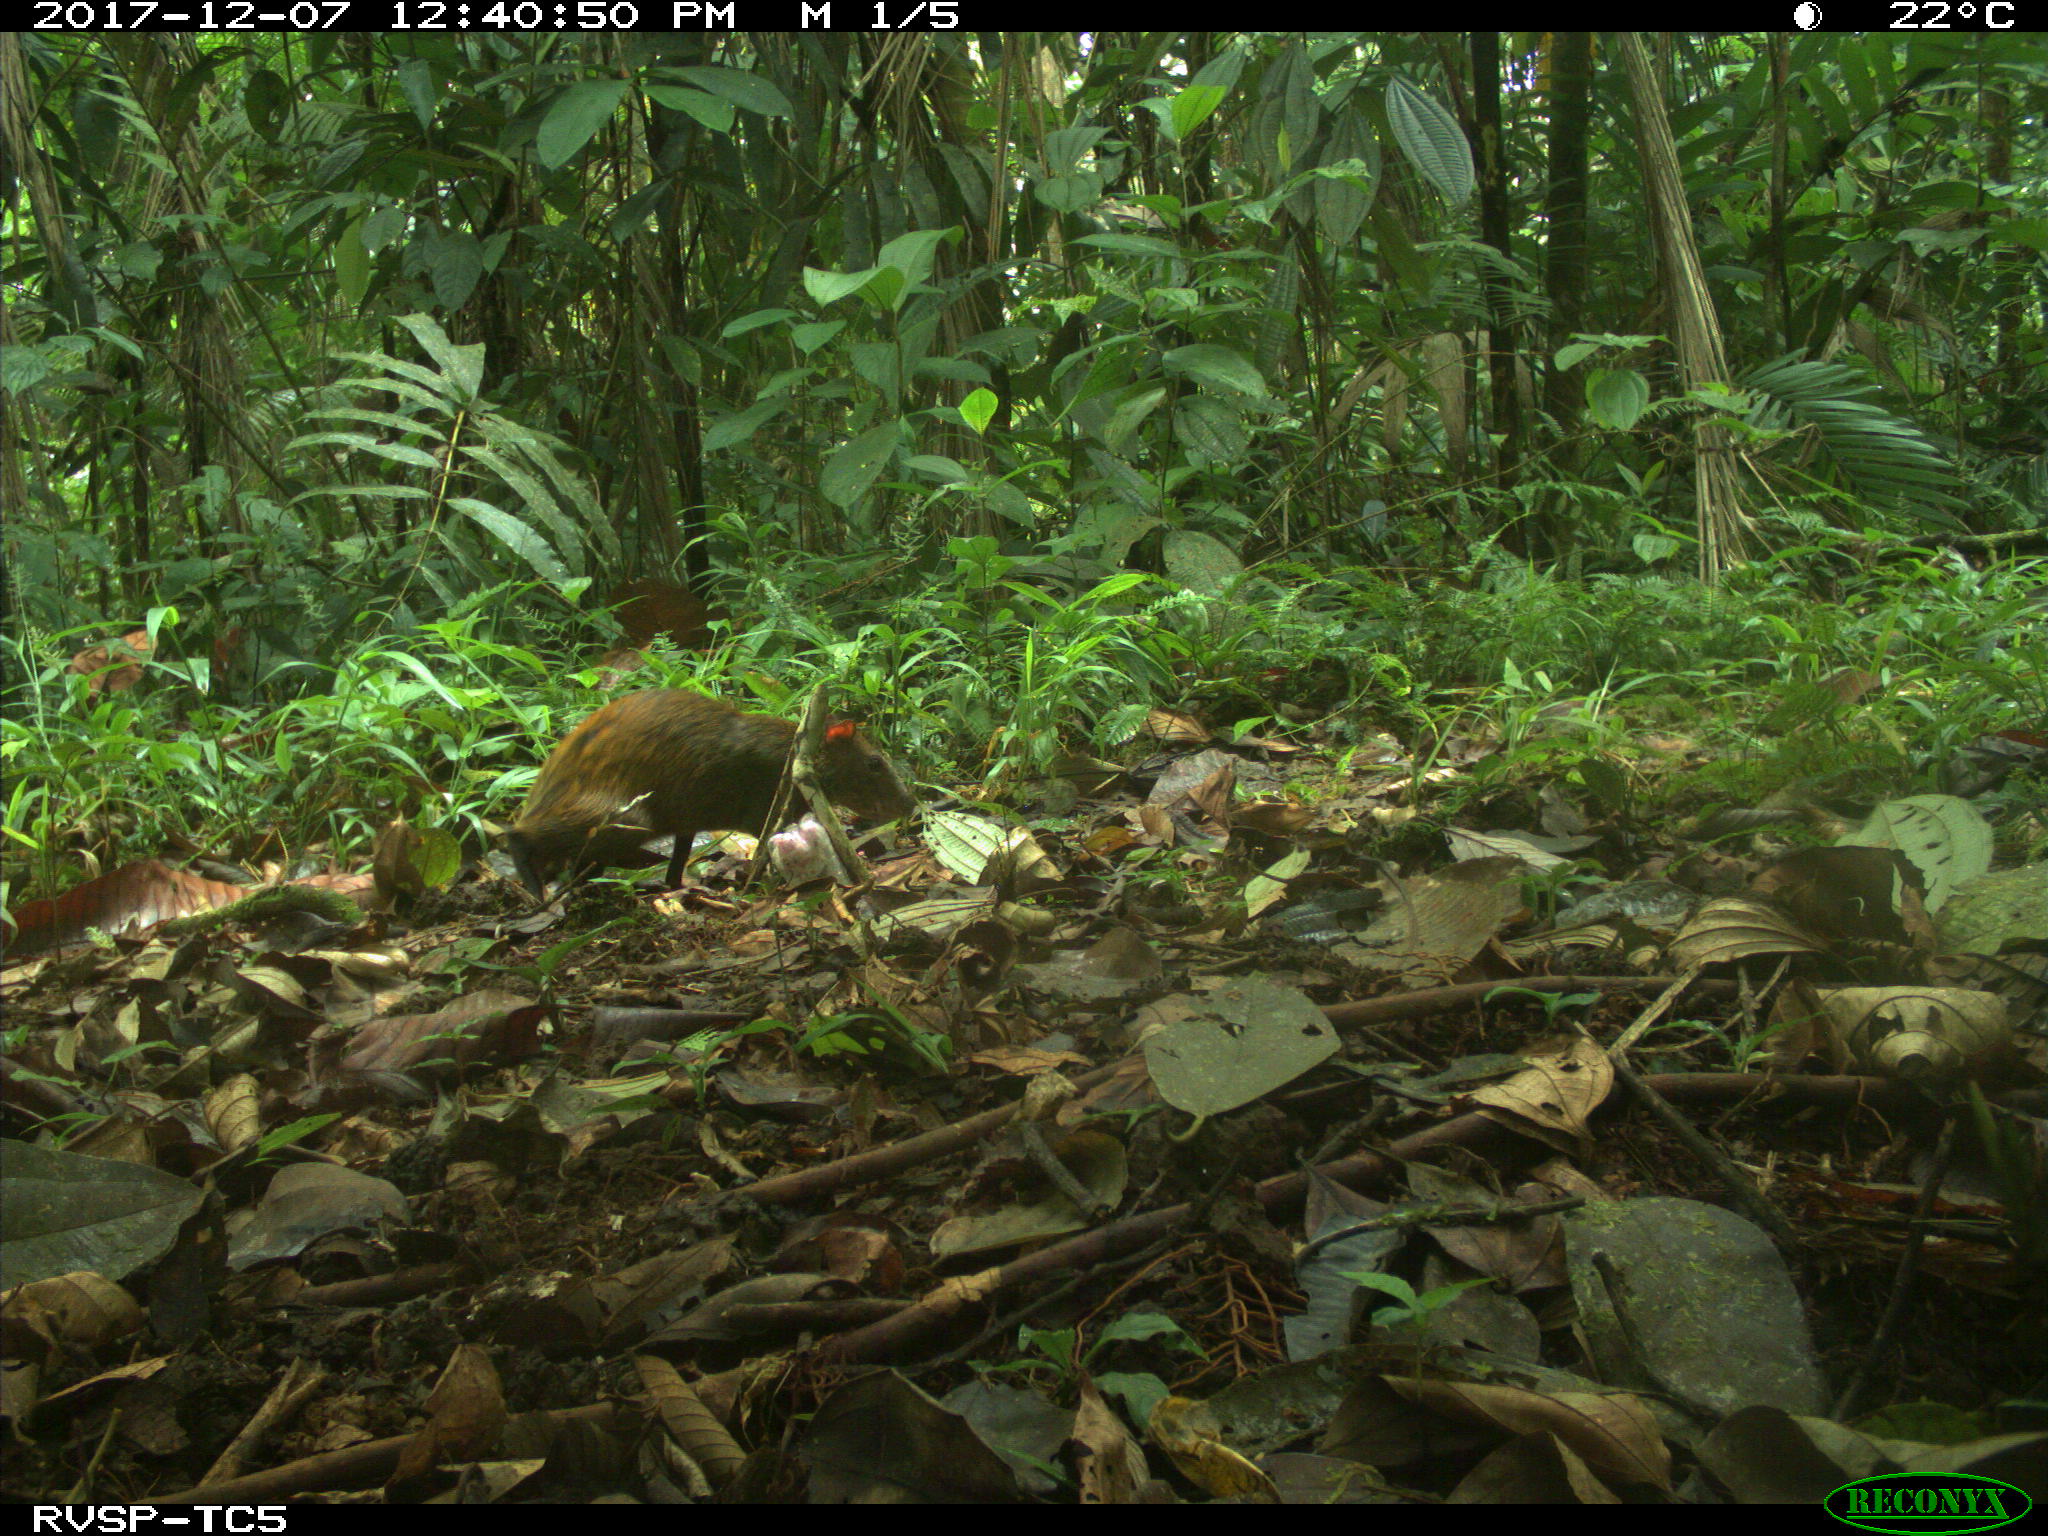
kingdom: Animalia
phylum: Chordata
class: Mammalia
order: Rodentia
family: Dasyproctidae
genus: Dasyprocta
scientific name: Dasyprocta punctata
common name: Central american agouti
